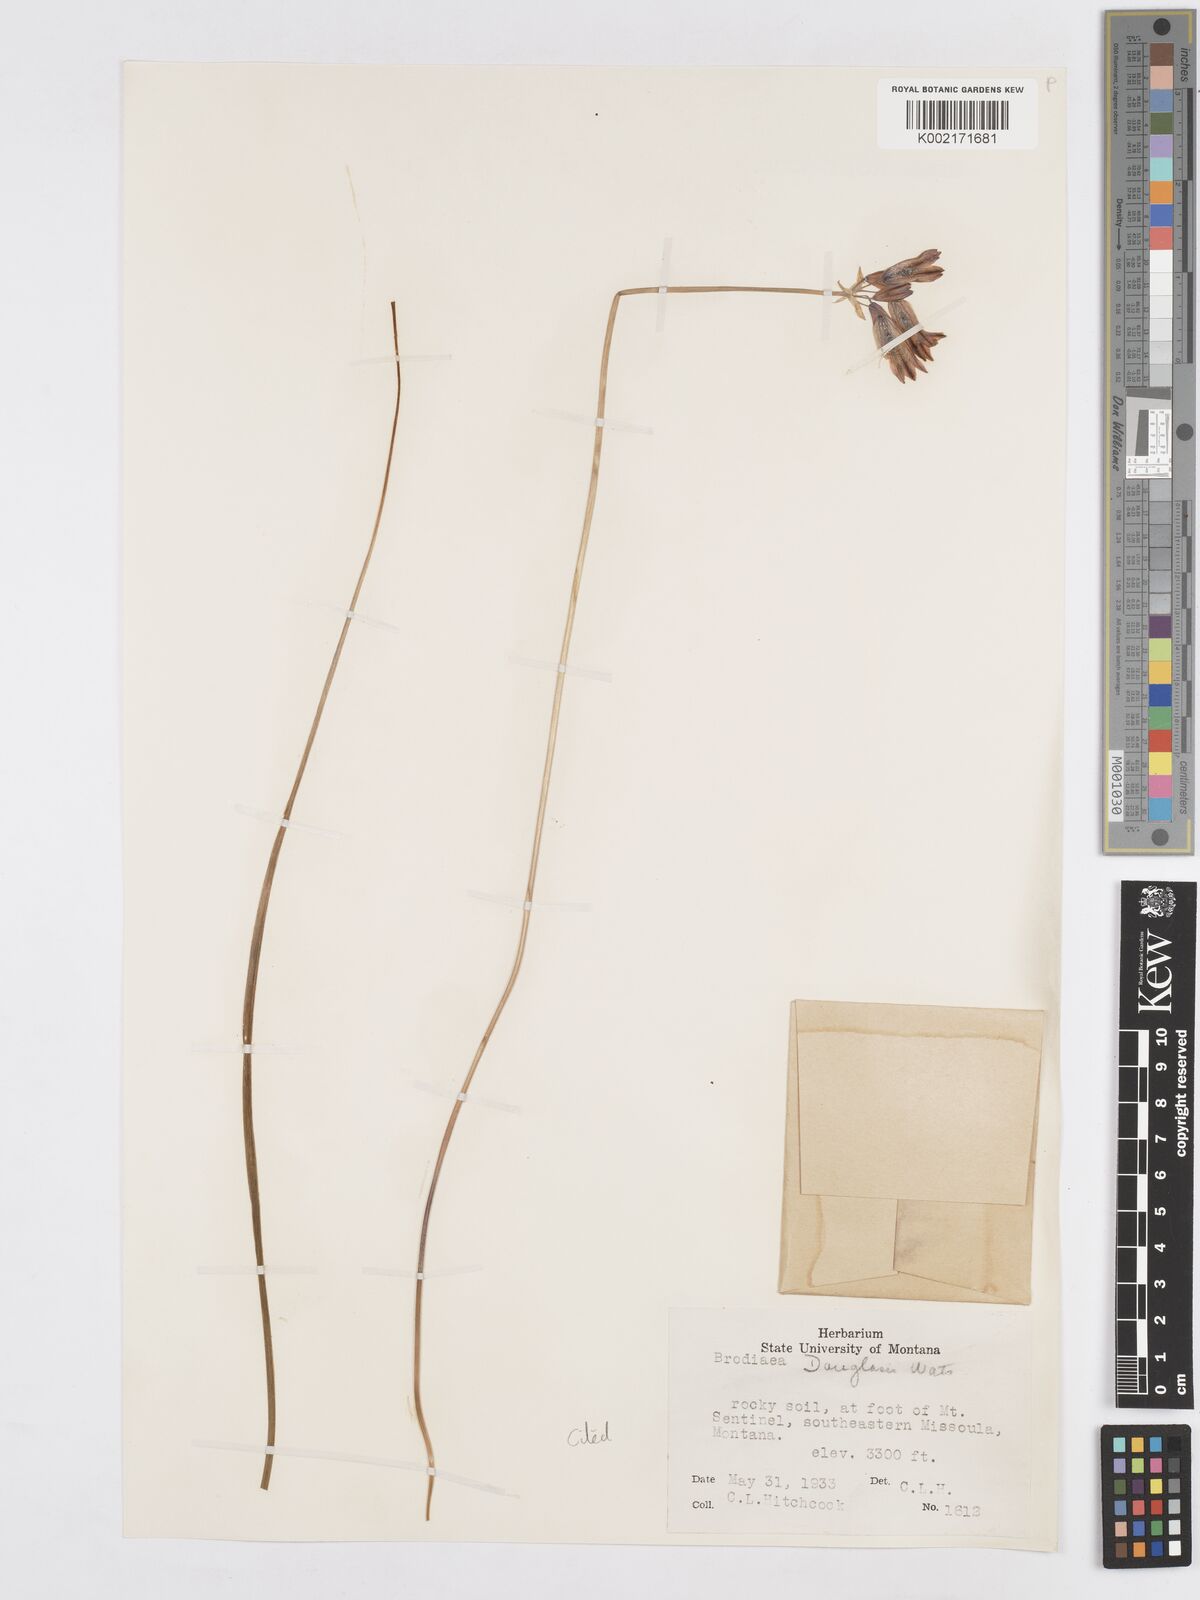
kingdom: Plantae
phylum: Tracheophyta
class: Liliopsida
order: Asparagales
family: Asparagaceae
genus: Triteleia
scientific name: Triteleia grandiflora
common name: Wild hyacinth
